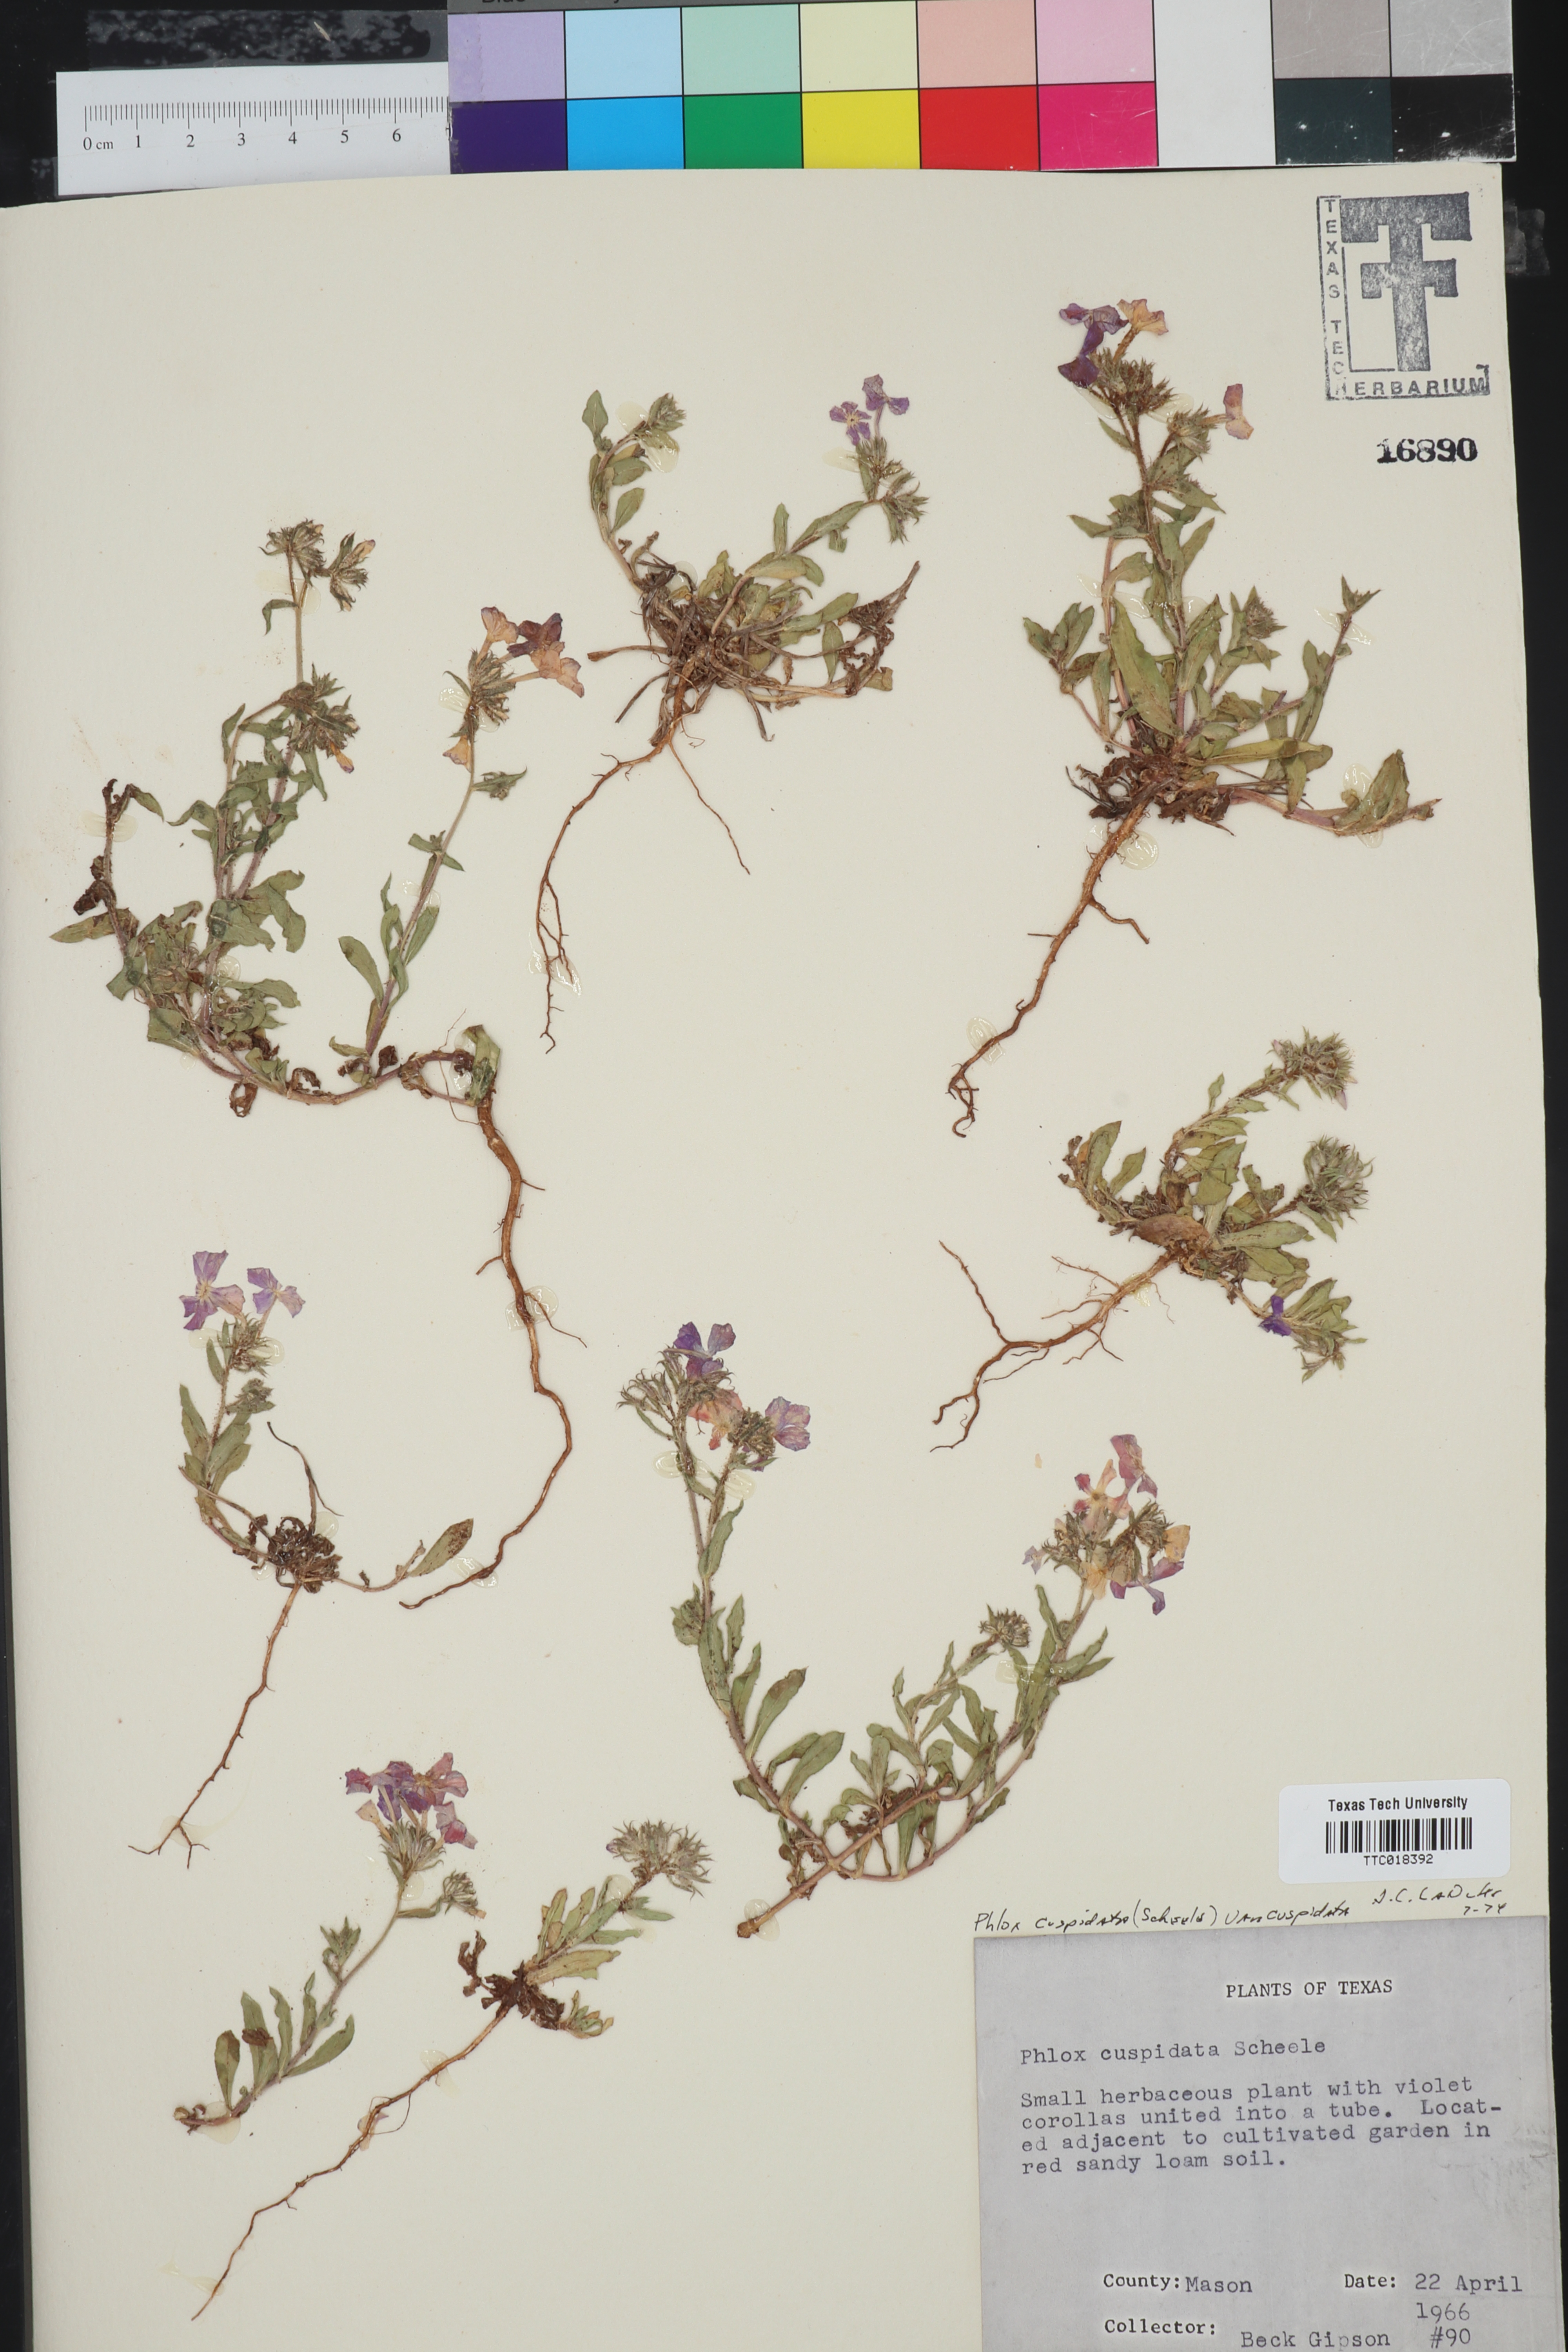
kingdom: Plantae
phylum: Tracheophyta
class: Magnoliopsida
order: Ericales
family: Polemoniaceae
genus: Phlox
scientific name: Phlox cuspidata
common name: Pointed phlox
